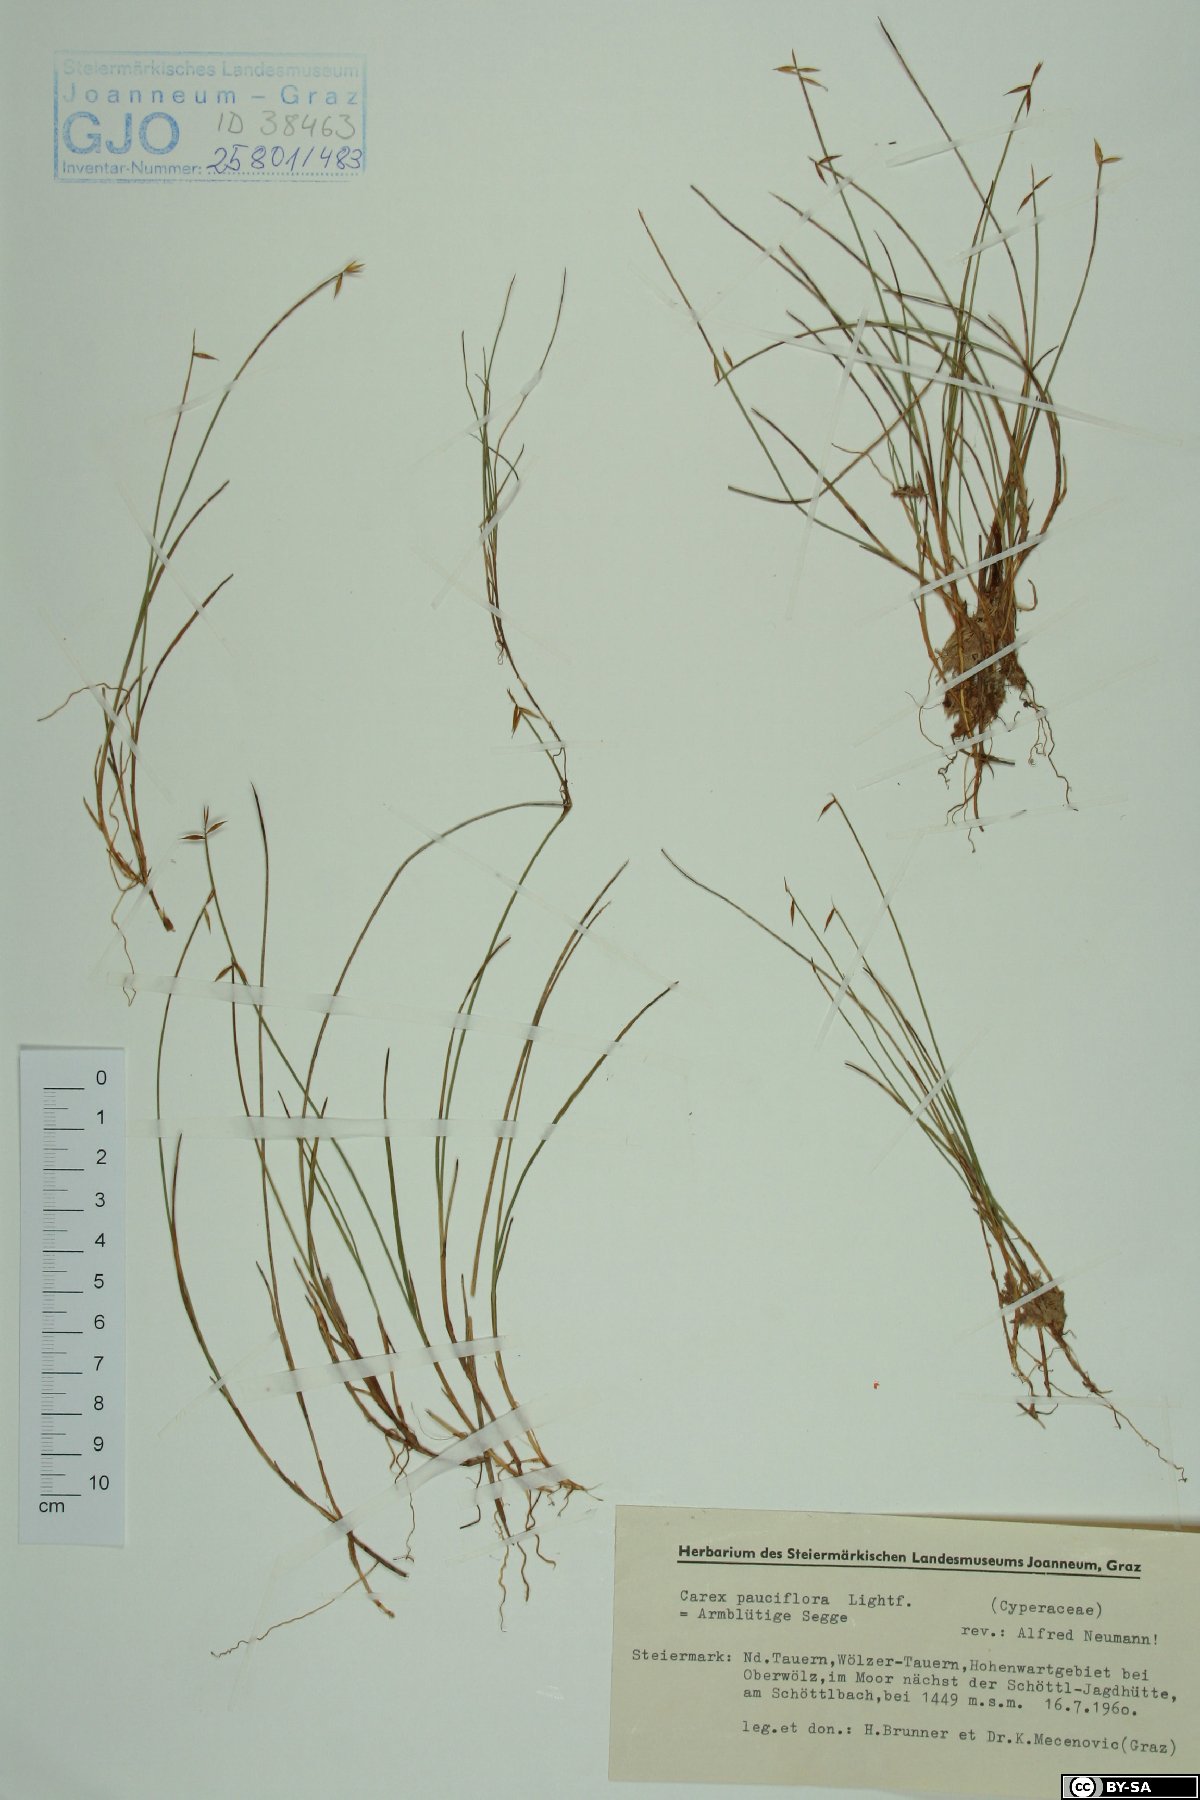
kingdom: Plantae
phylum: Tracheophyta
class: Liliopsida
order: Poales
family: Cyperaceae
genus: Carex
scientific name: Carex pauciflora
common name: Few-flowered sedge
